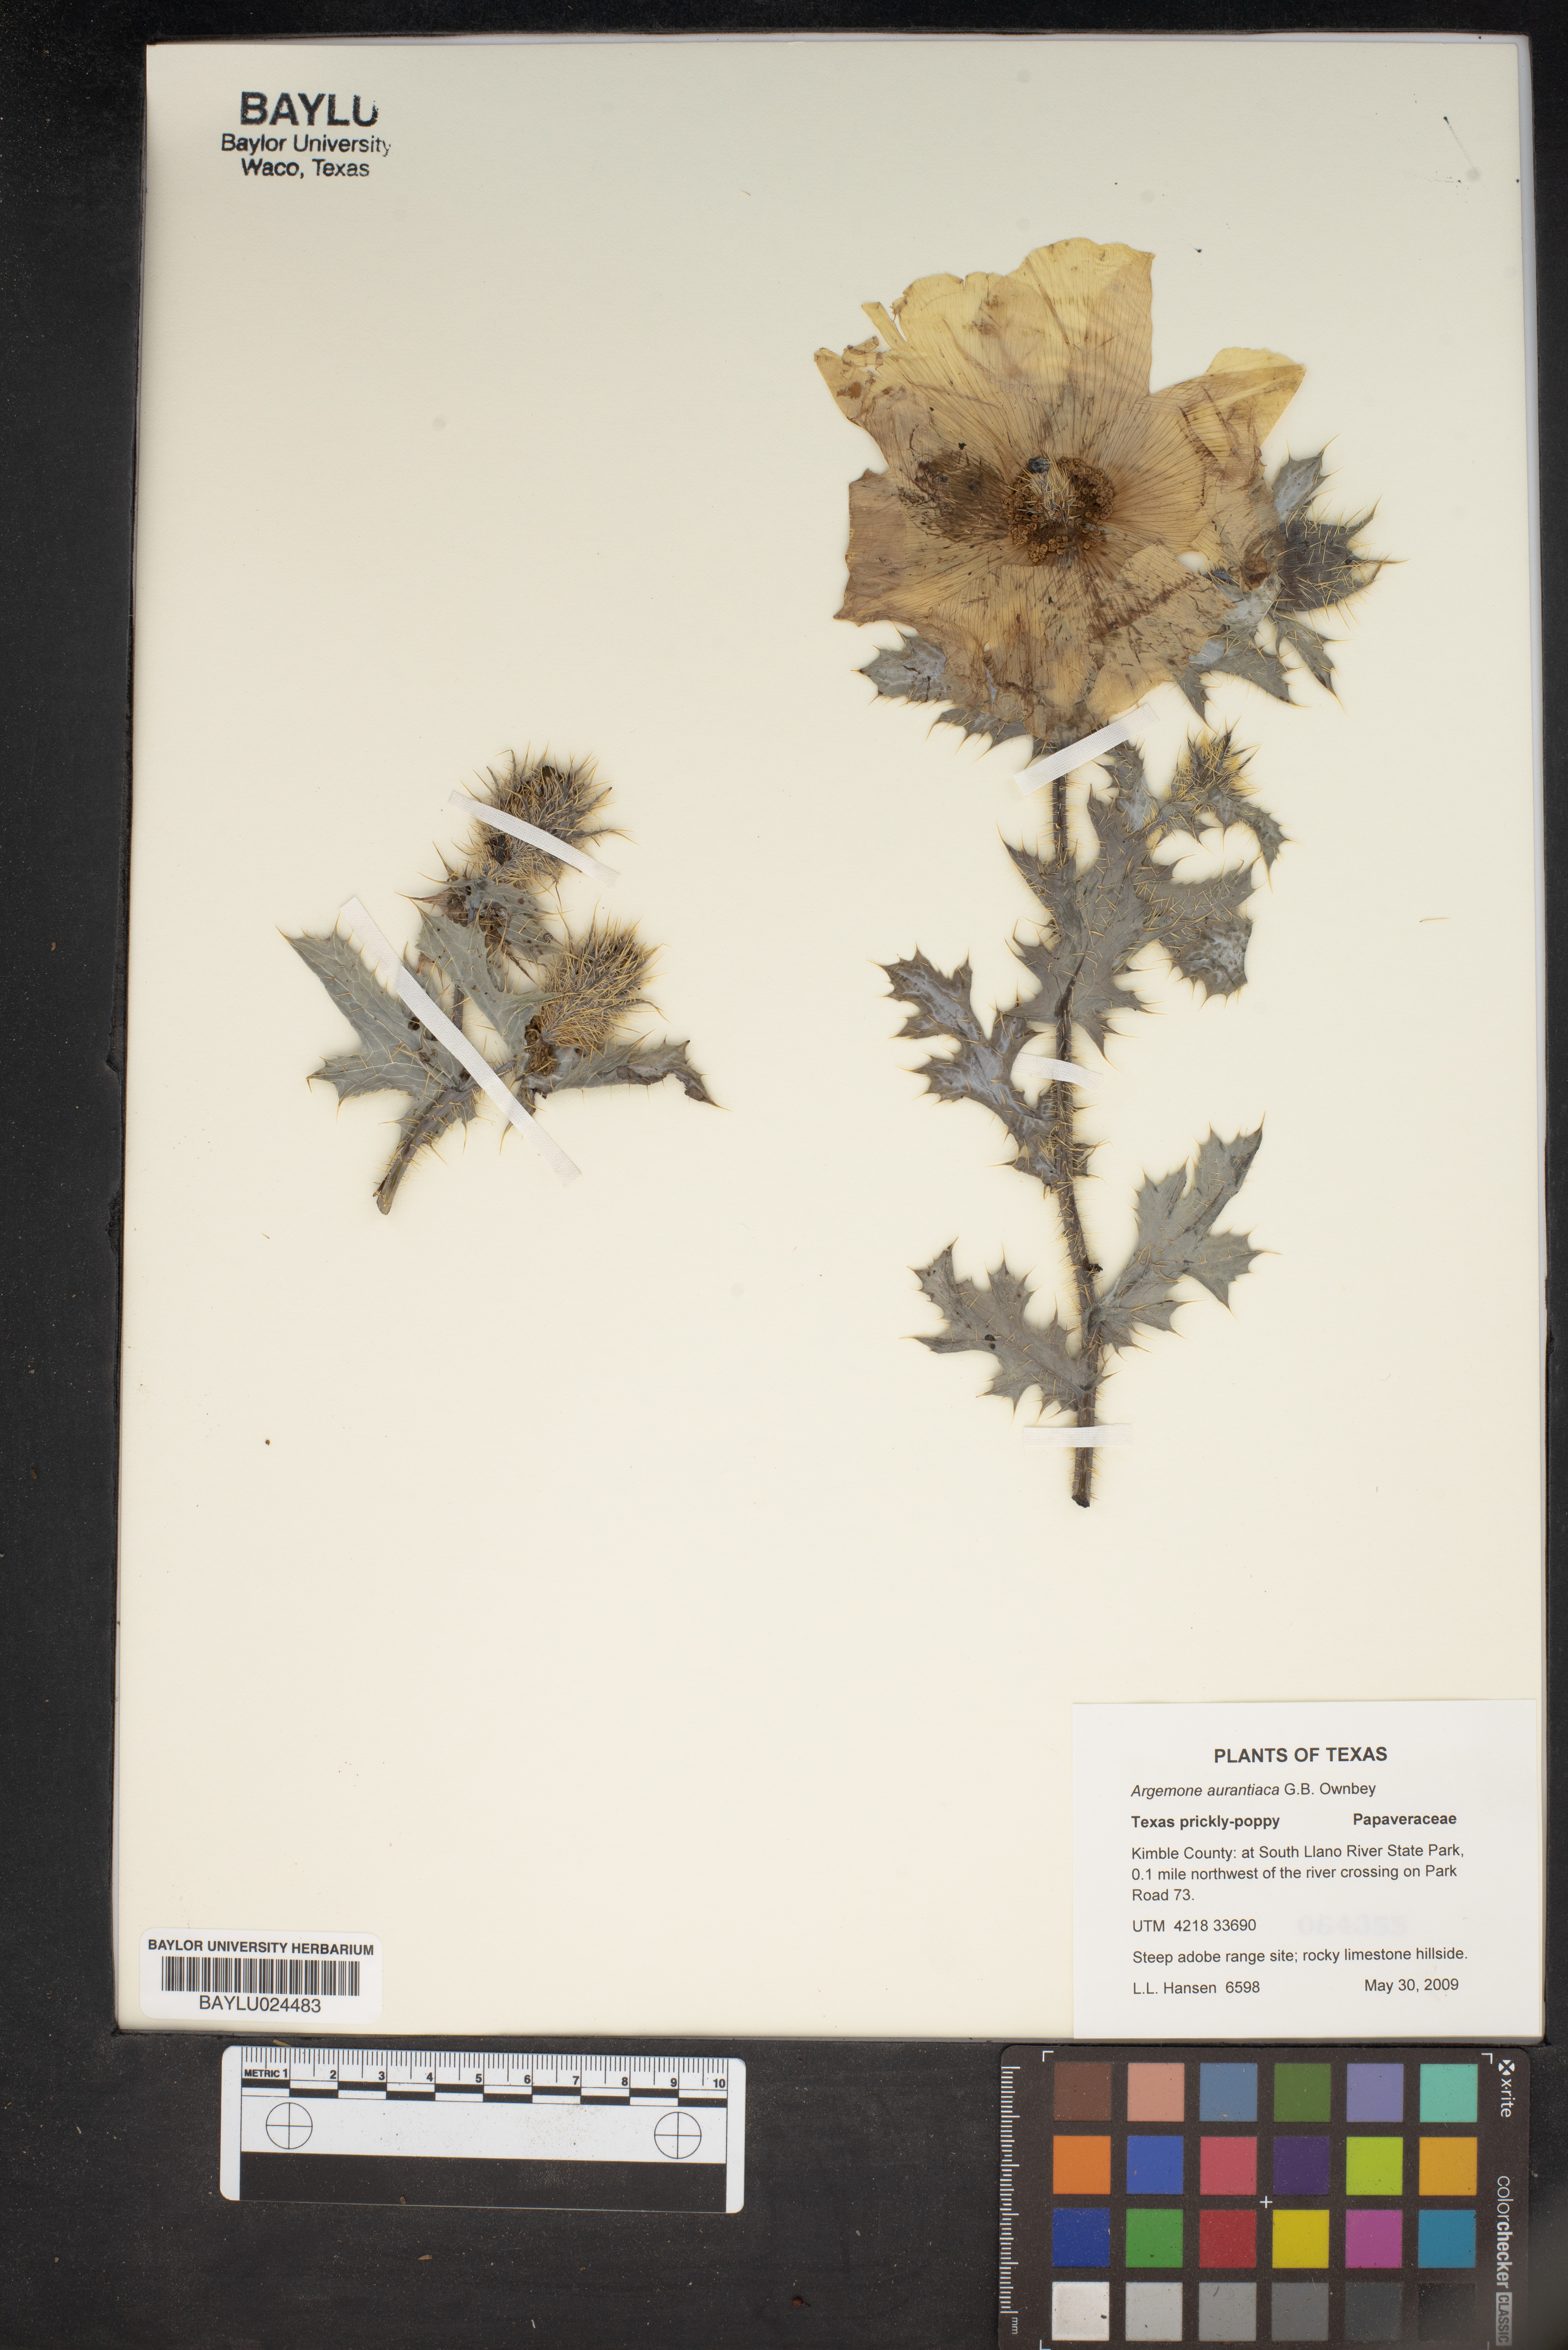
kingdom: Plantae
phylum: Tracheophyta
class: Magnoliopsida
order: Ranunculales
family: Papaveraceae
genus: Argemone
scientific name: Argemone aurantiaca
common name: Texas prickly-poppy
